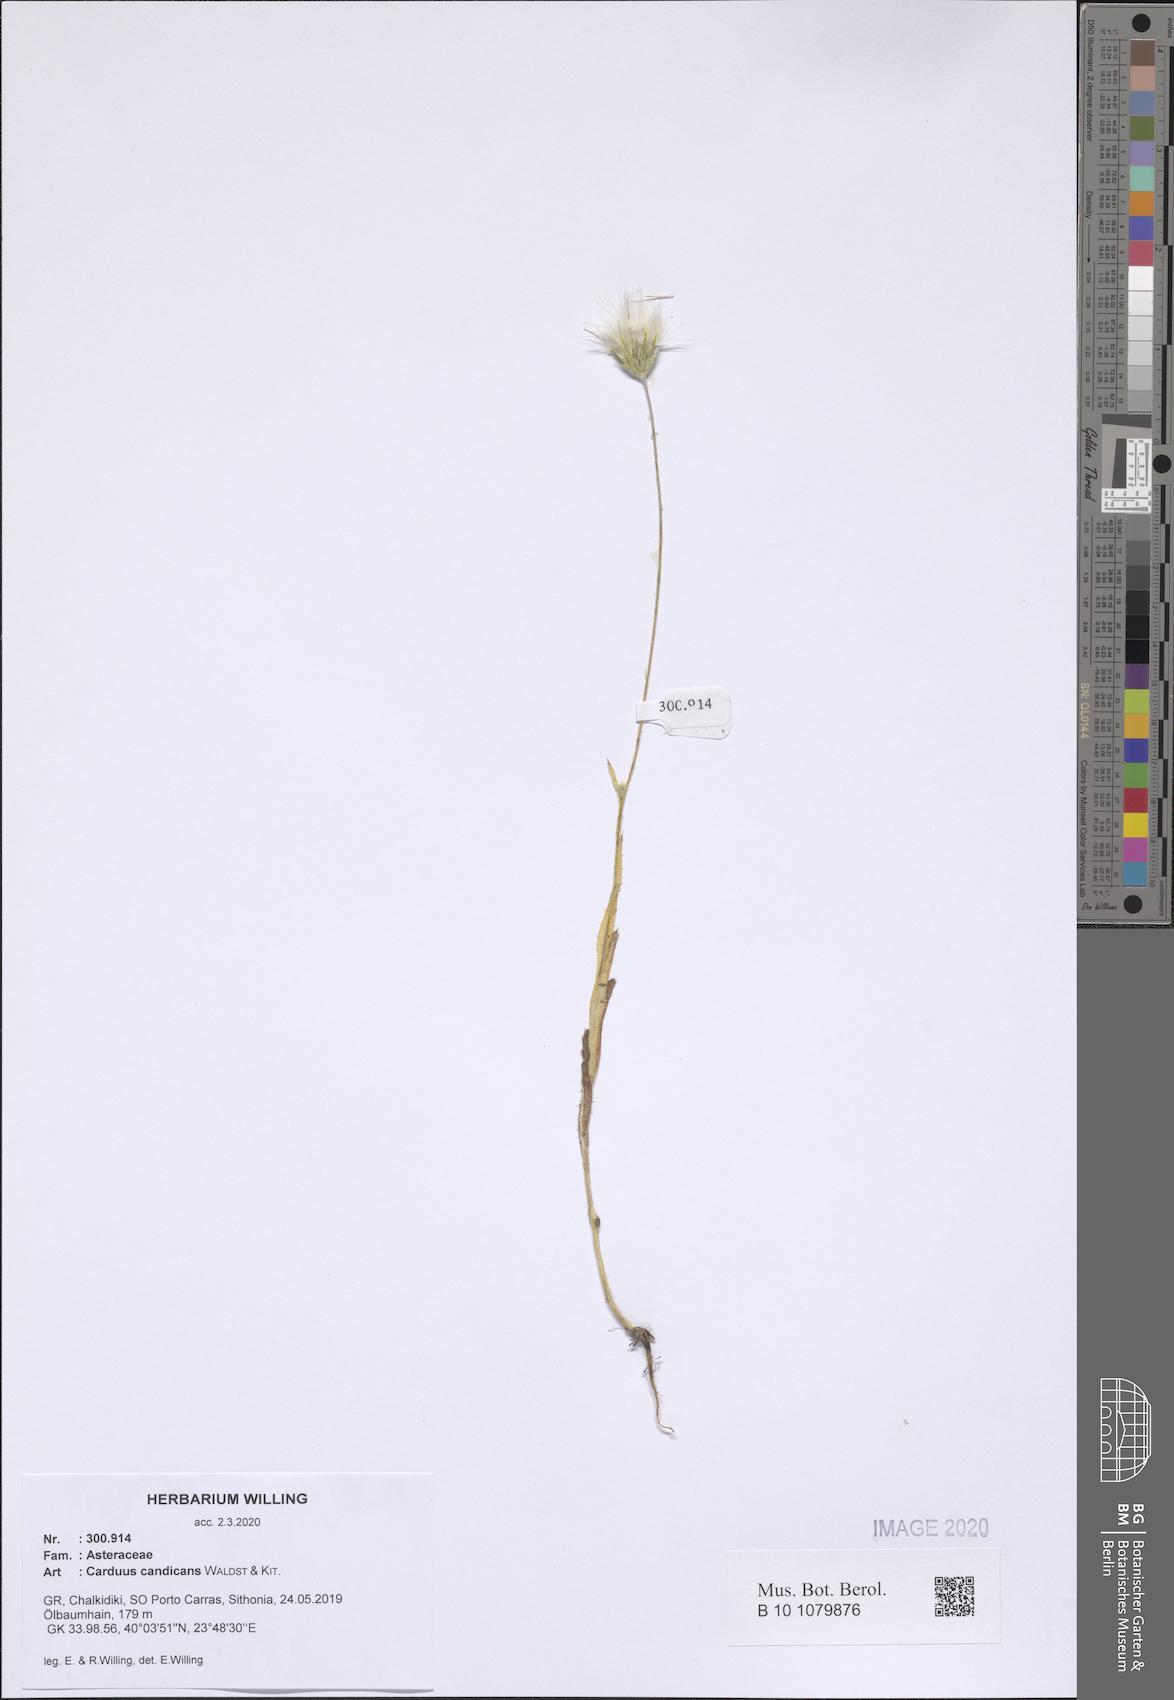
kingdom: Plantae
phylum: Tracheophyta
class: Magnoliopsida
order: Asterales
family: Asteraceae
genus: Carduus
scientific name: Carduus candicans
